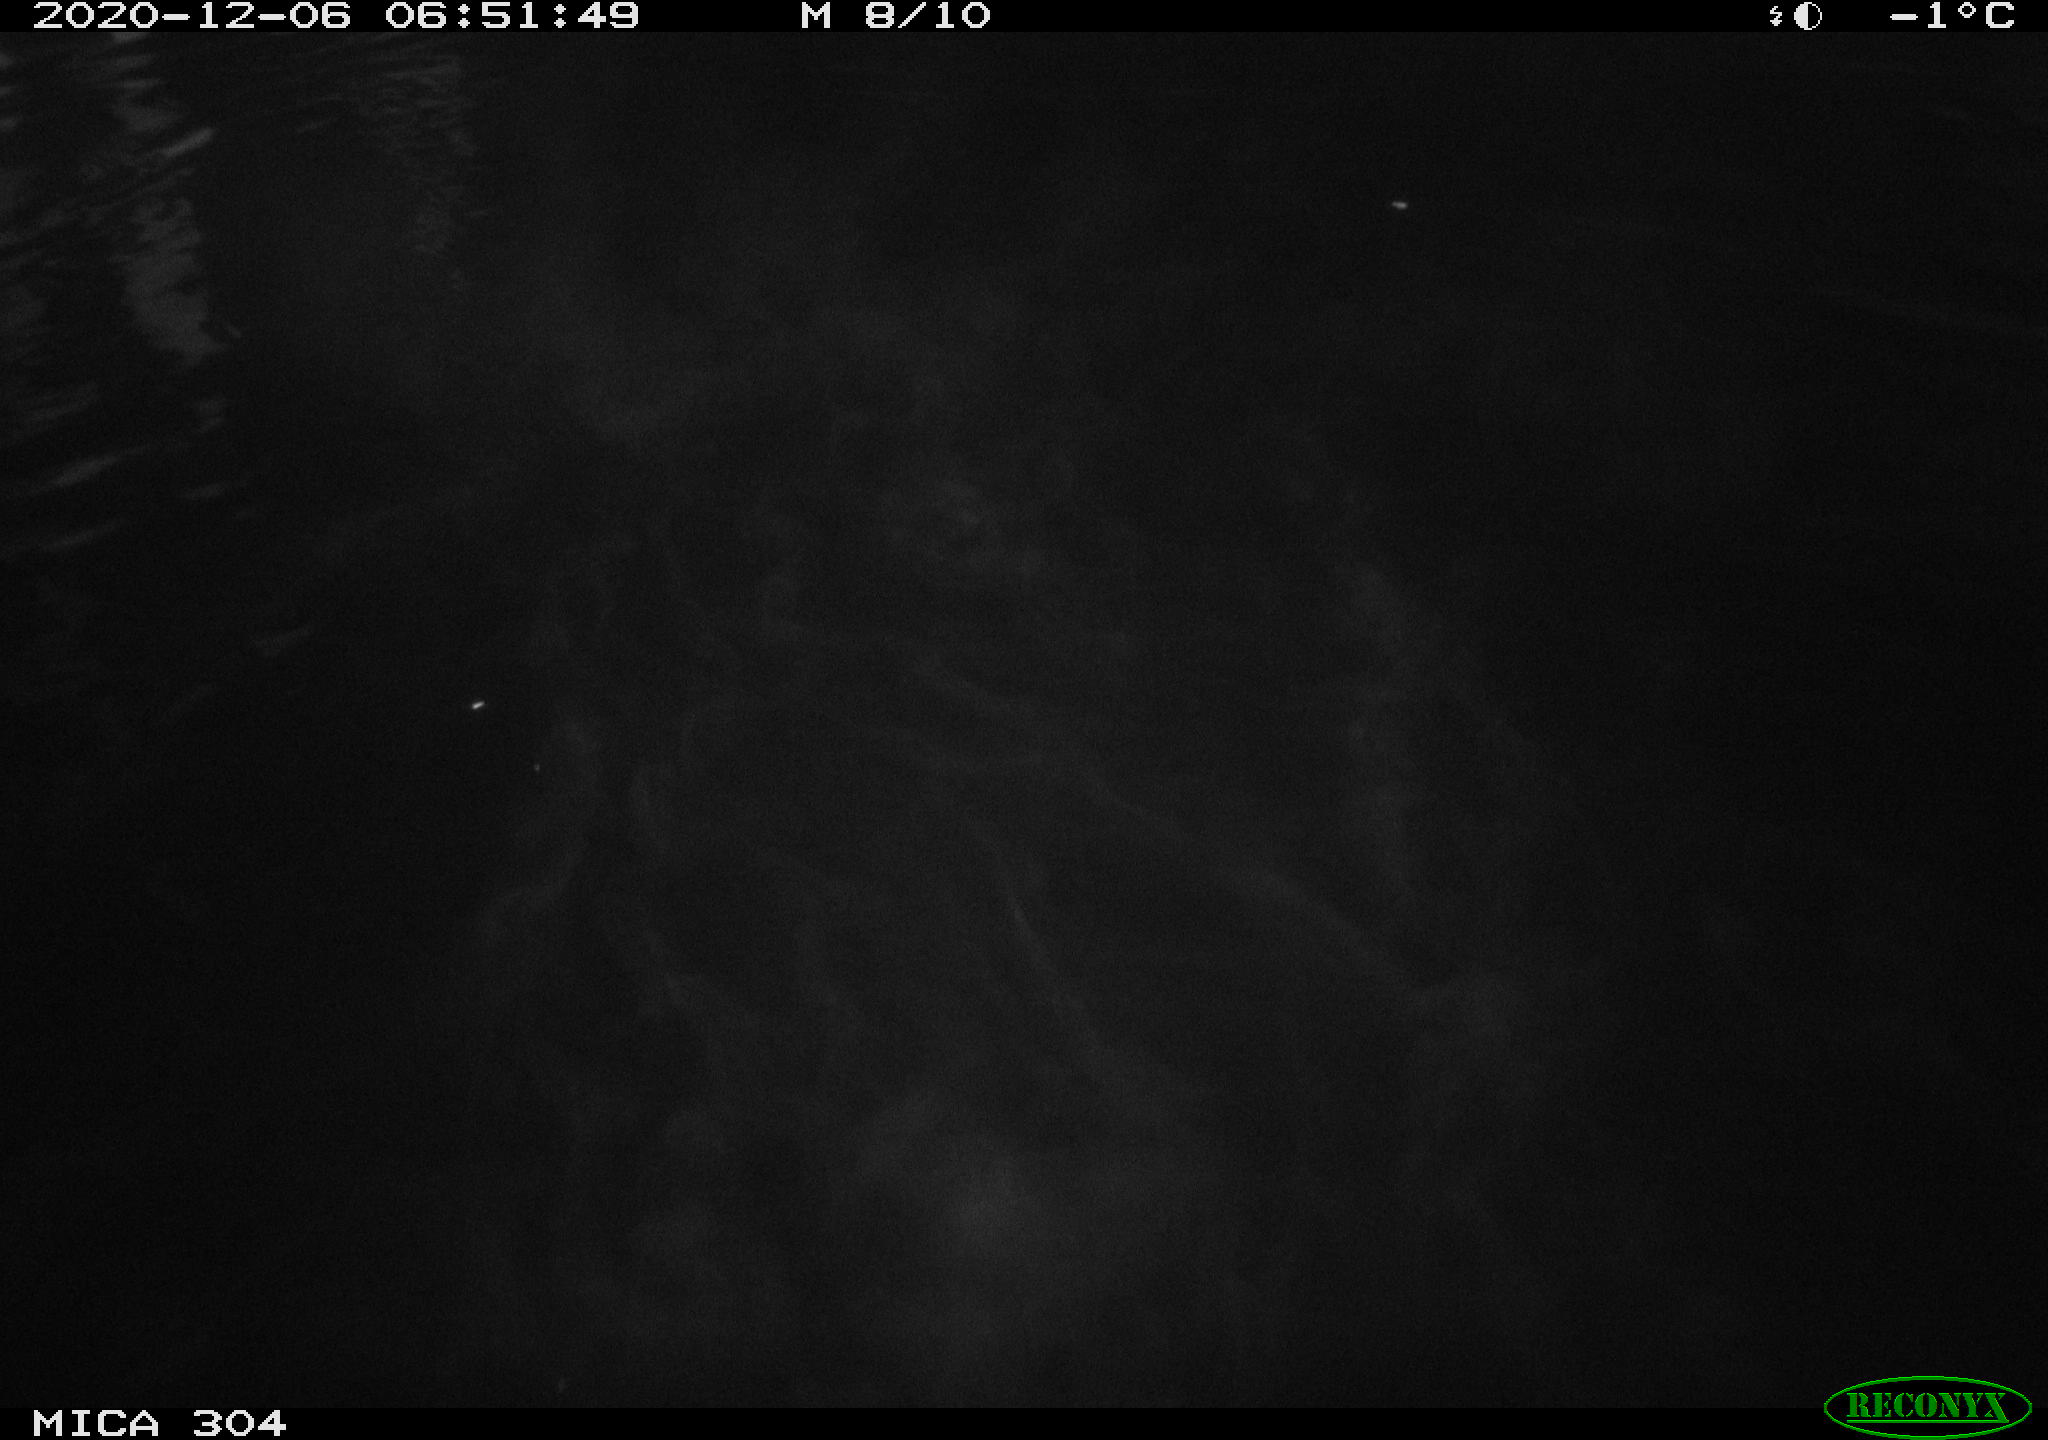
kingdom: Animalia
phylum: Chordata
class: Aves
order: Anseriformes
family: Anatidae
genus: Anas
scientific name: Anas platyrhynchos
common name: Mallard
